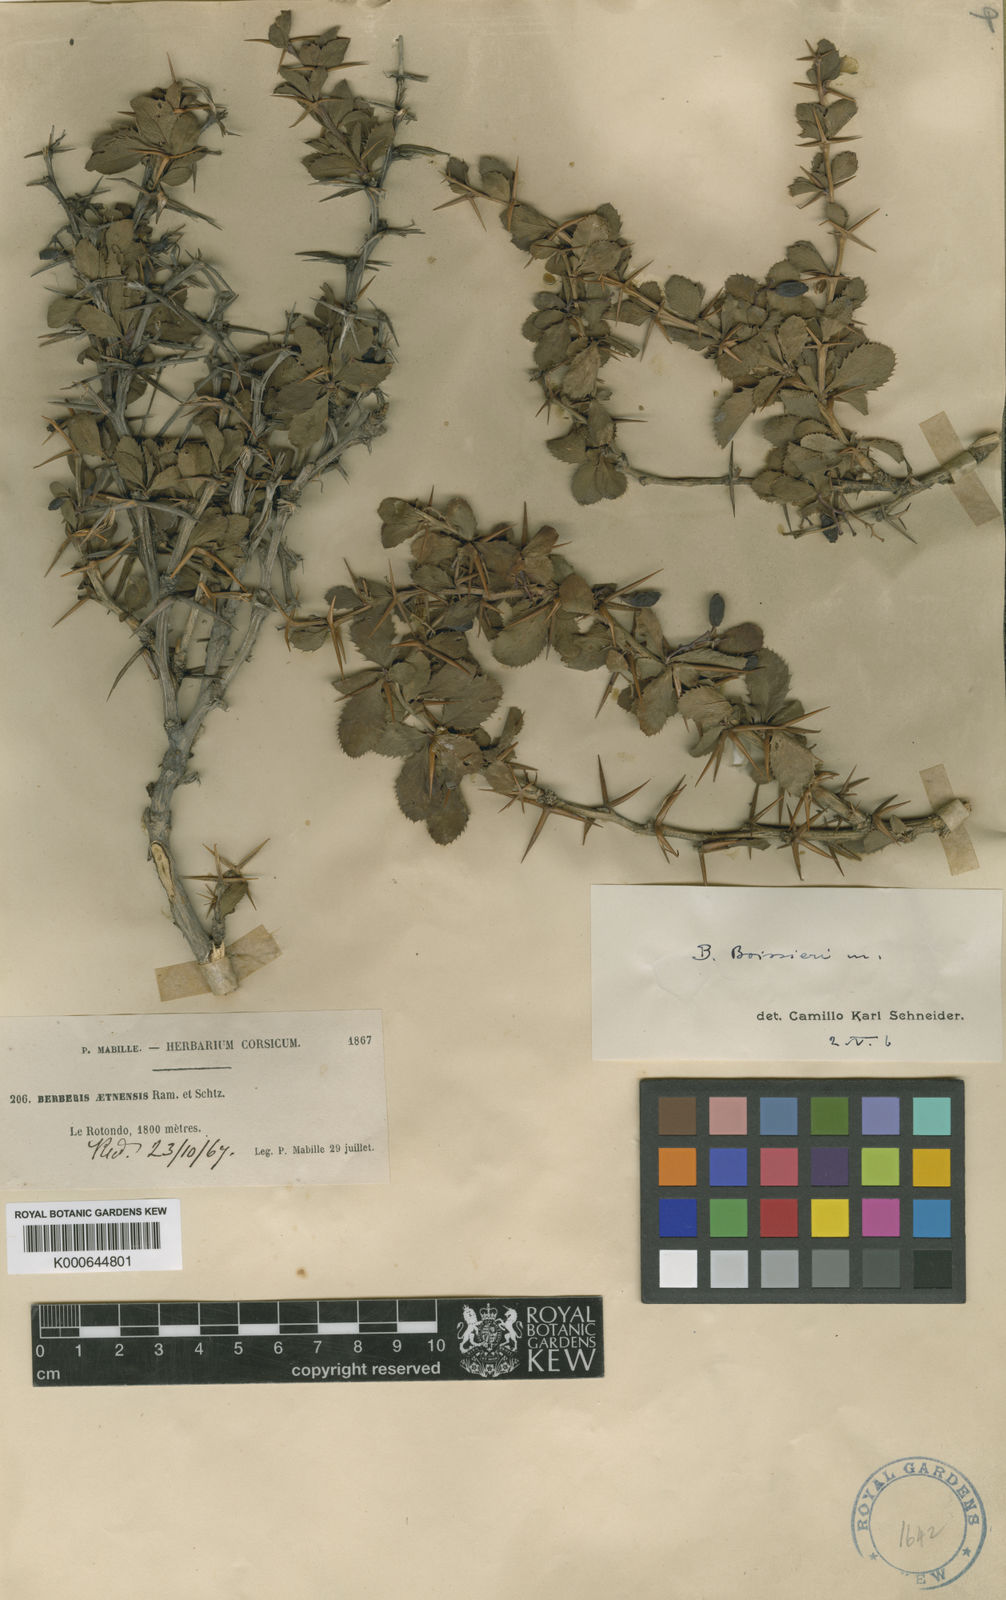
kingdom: Plantae
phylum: Tracheophyta
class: Magnoliopsida
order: Ranunculales
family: Berberidaceae
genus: Berberis
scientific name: Berberis aetnensis
